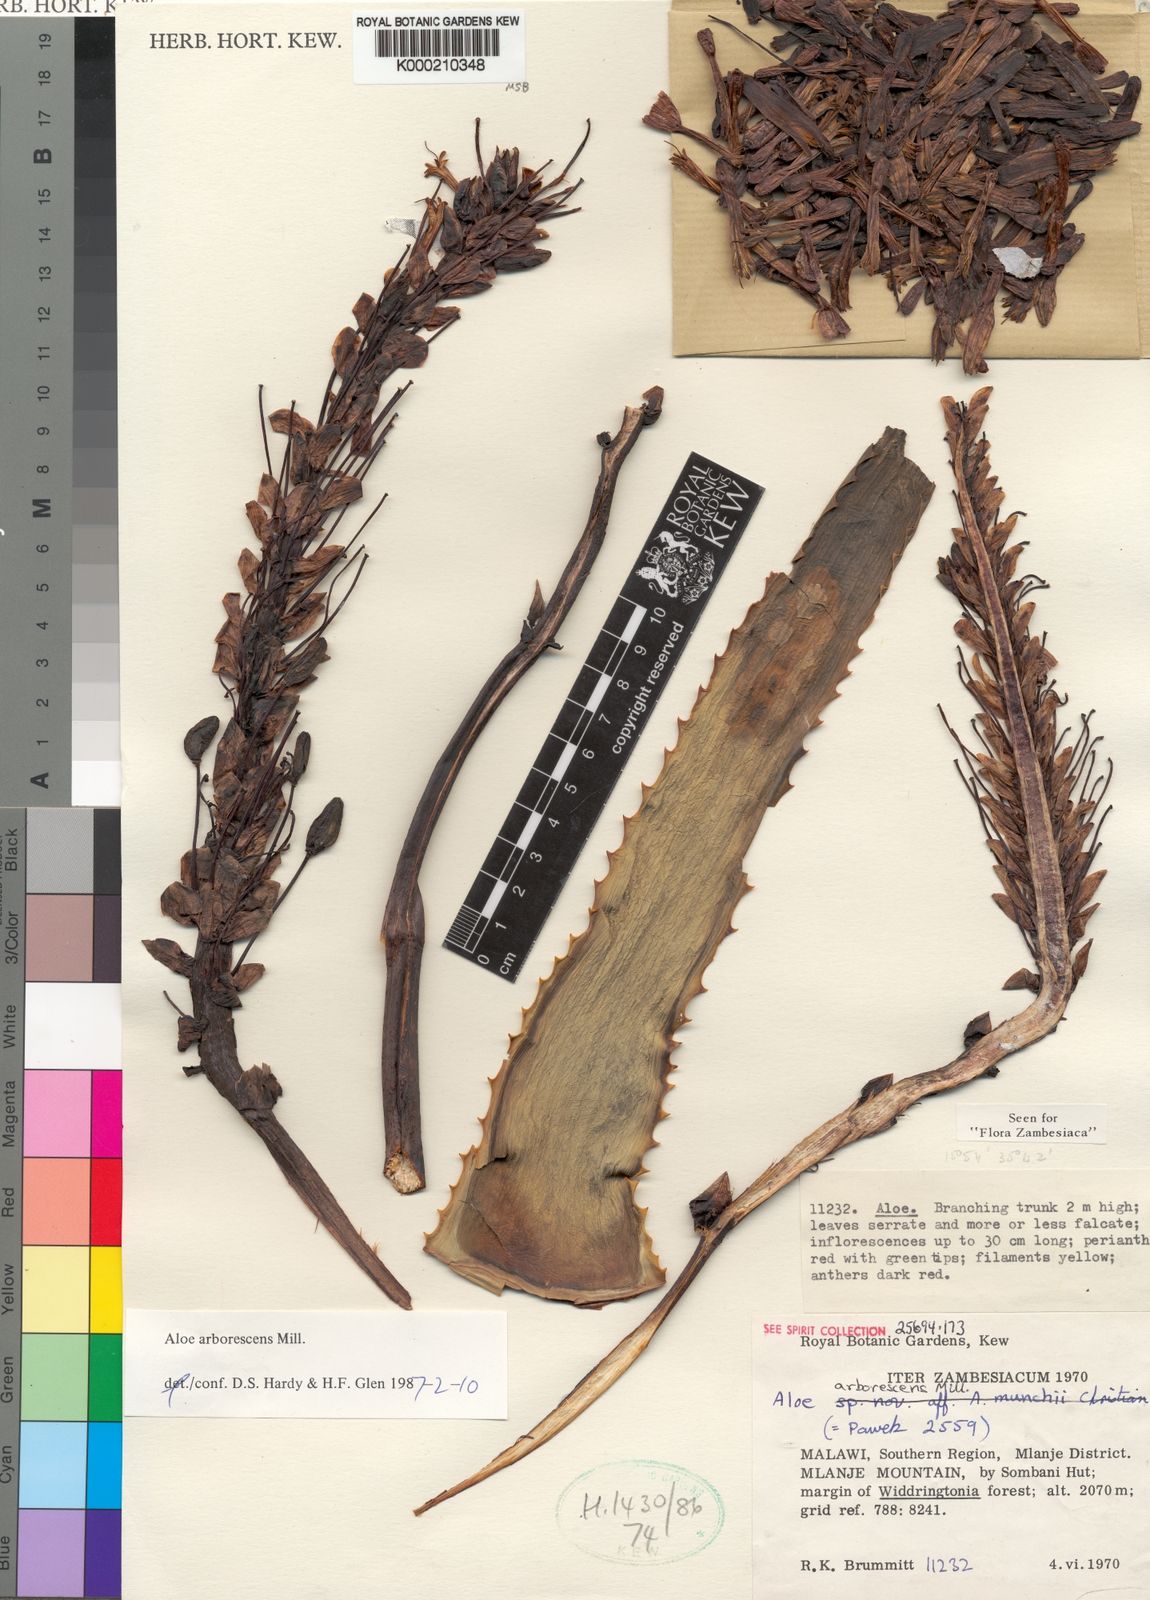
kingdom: Plantae
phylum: Tracheophyta
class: Liliopsida
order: Asparagales
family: Asphodelaceae
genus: Aloe
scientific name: Aloe arborescens
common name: Candelabra aloe
